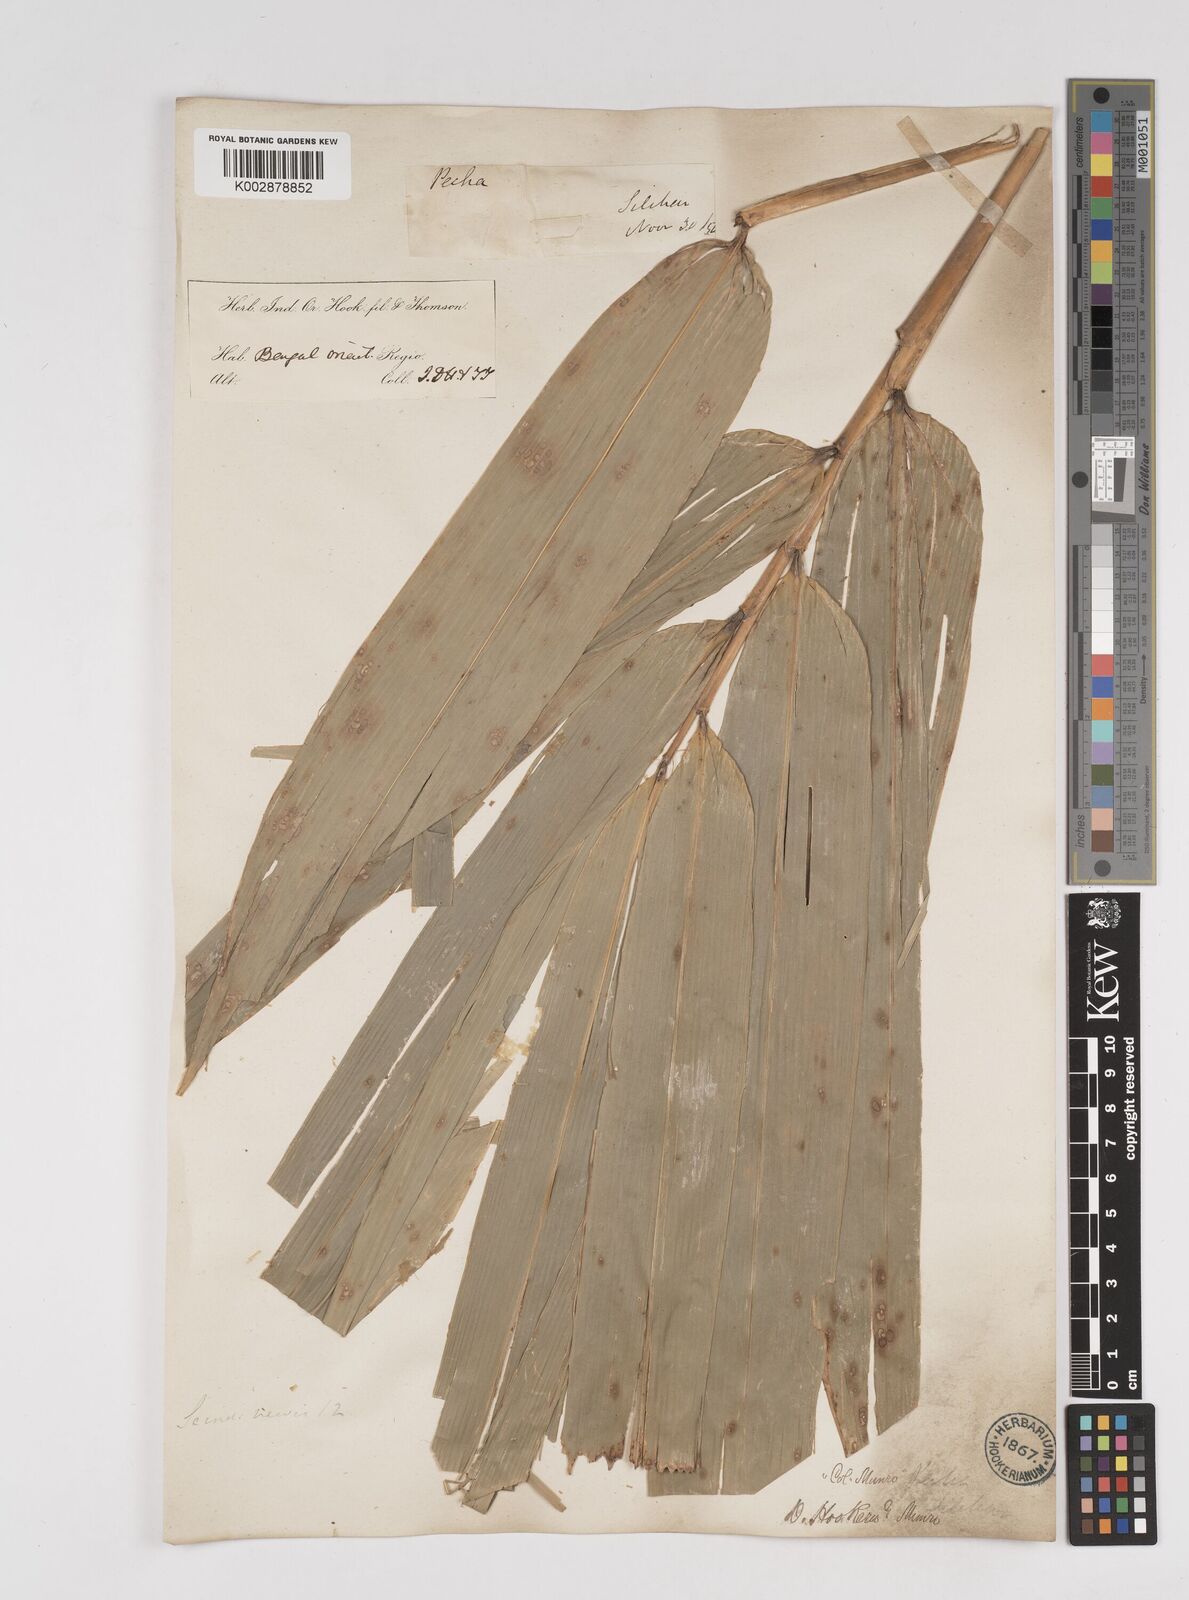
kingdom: Plantae
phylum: Tracheophyta
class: Liliopsida
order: Poales
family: Poaceae
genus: Dendrocalamus
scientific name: Dendrocalamus hookeri
